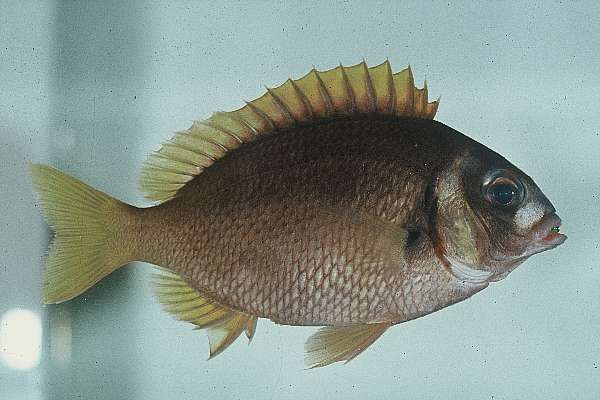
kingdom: Animalia
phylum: Chordata
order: Perciformes
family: Nemipteridae
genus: Scolopsis
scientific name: Scolopsis vosmeri
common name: Whitecheek monocle bream
